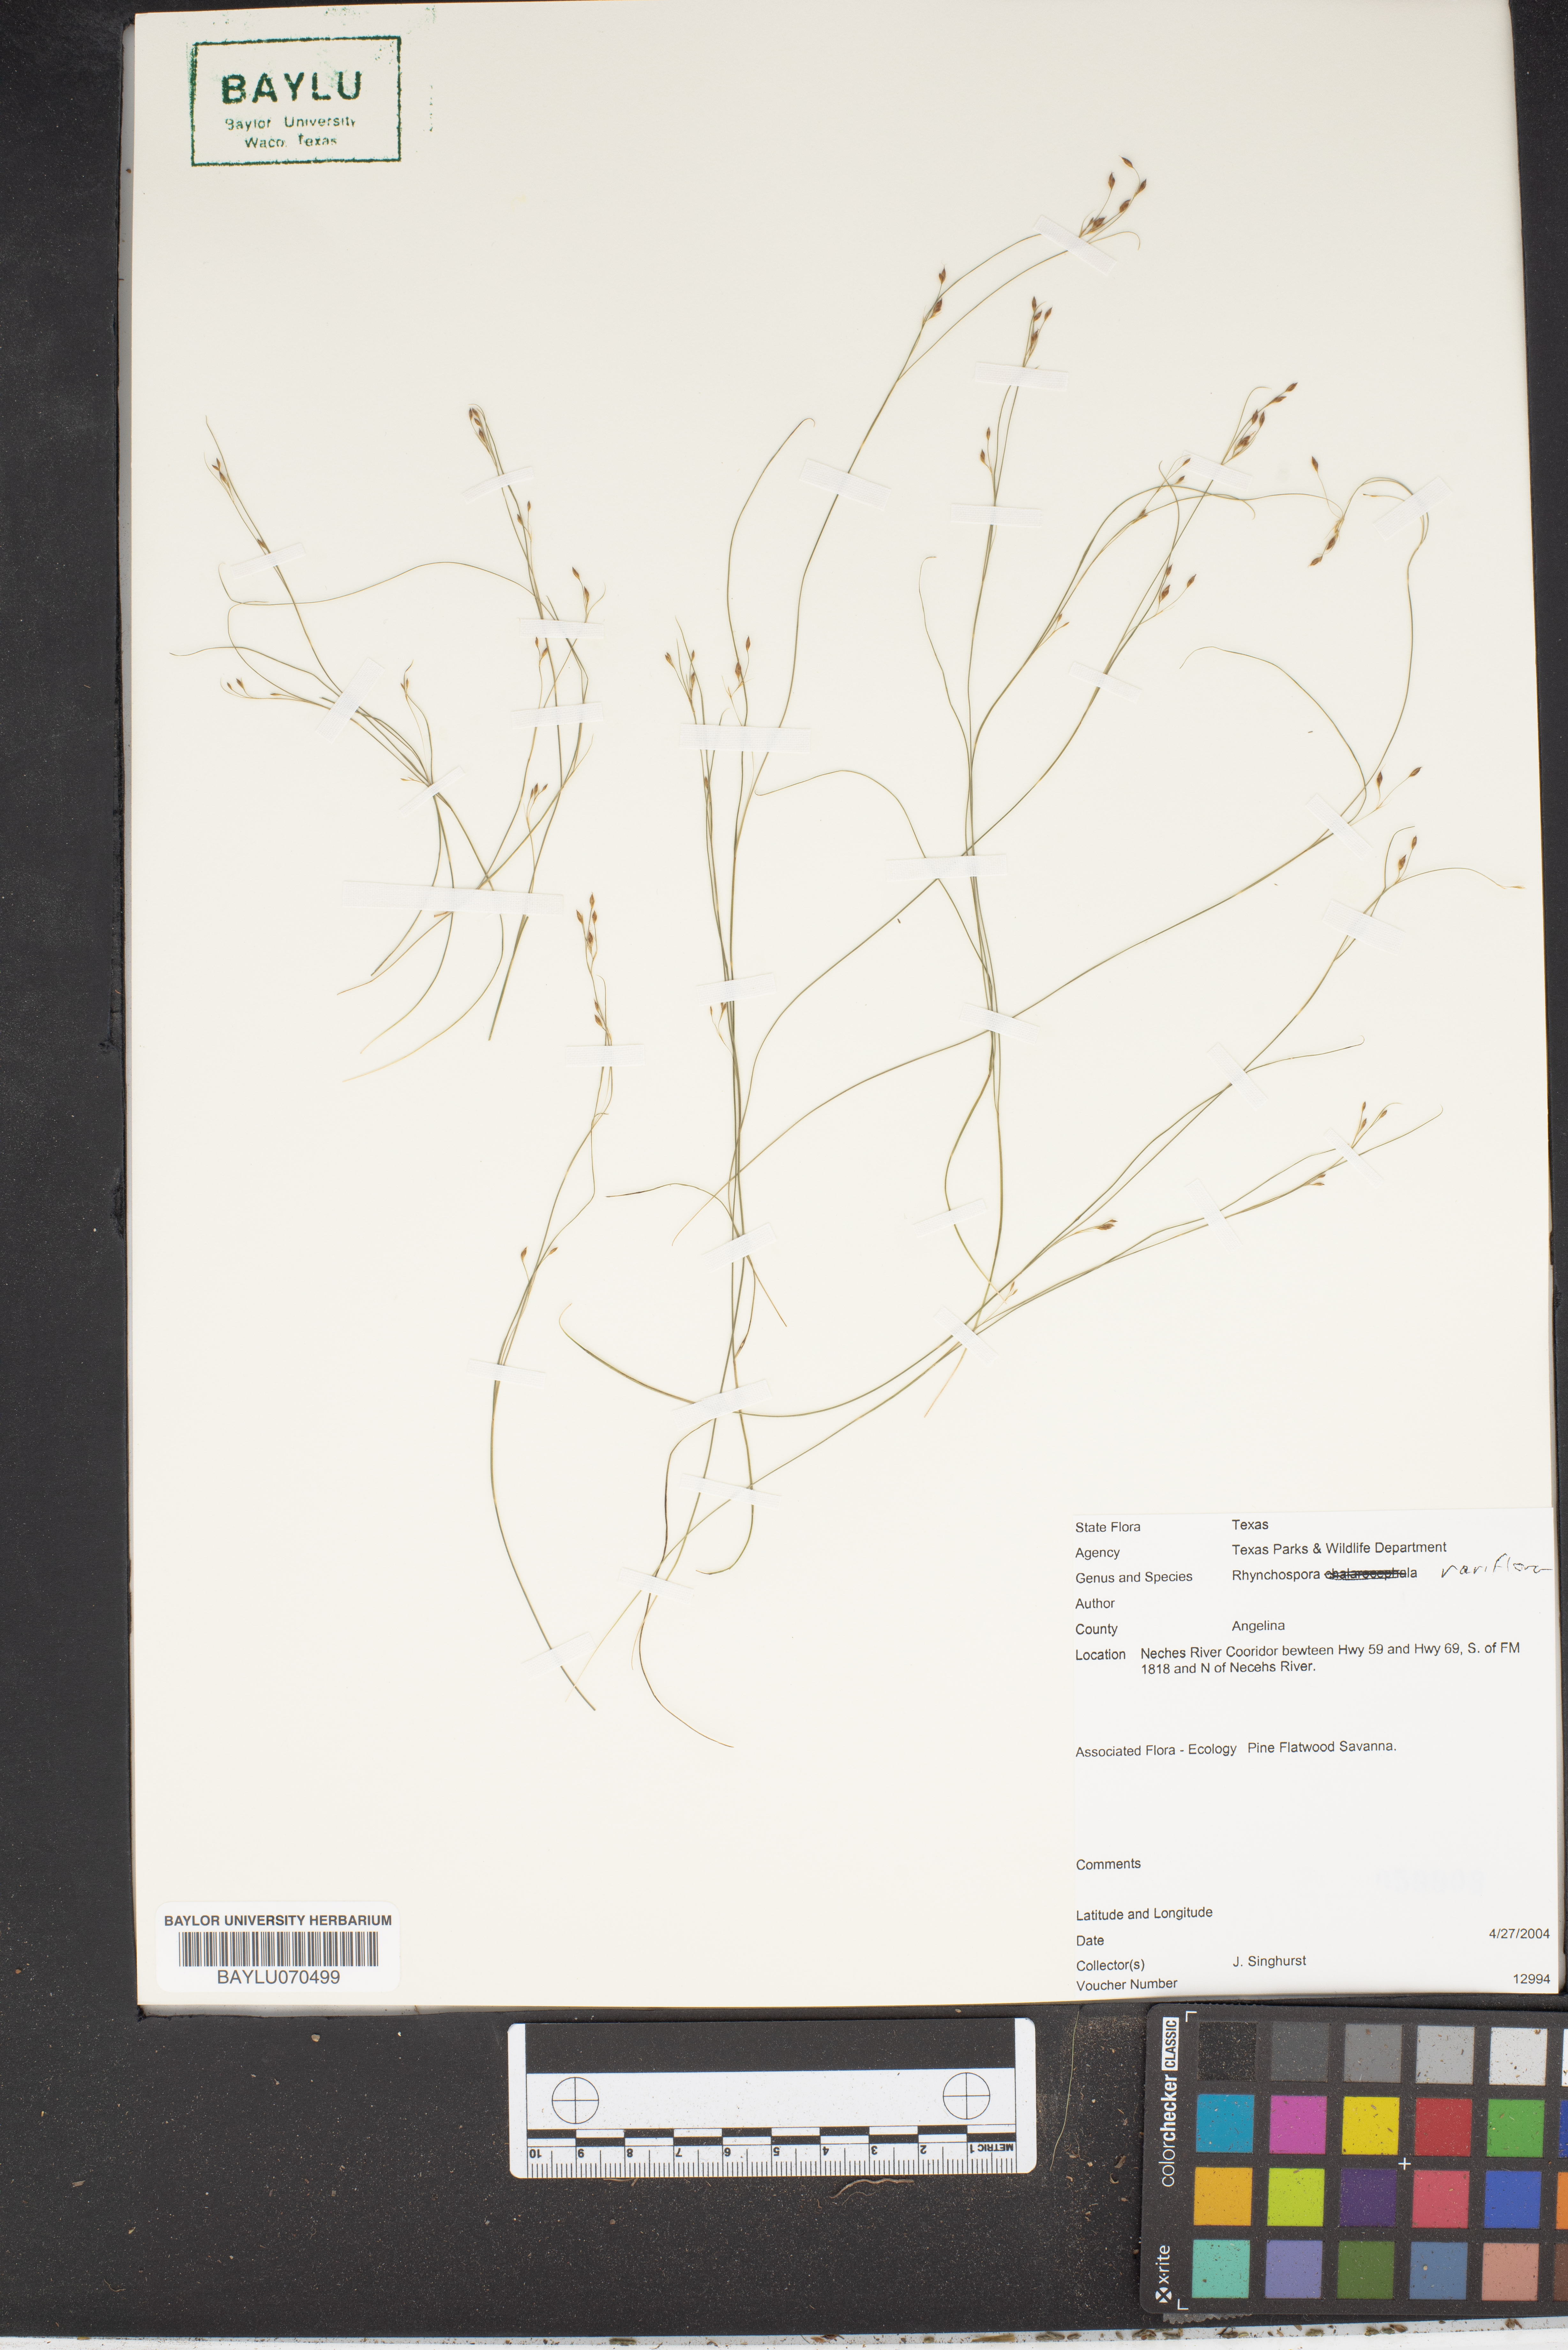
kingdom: Plantae
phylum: Tracheophyta
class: Liliopsida
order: Poales
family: Cyperaceae
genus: Rhynchospora
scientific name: Rhynchospora rariflora
